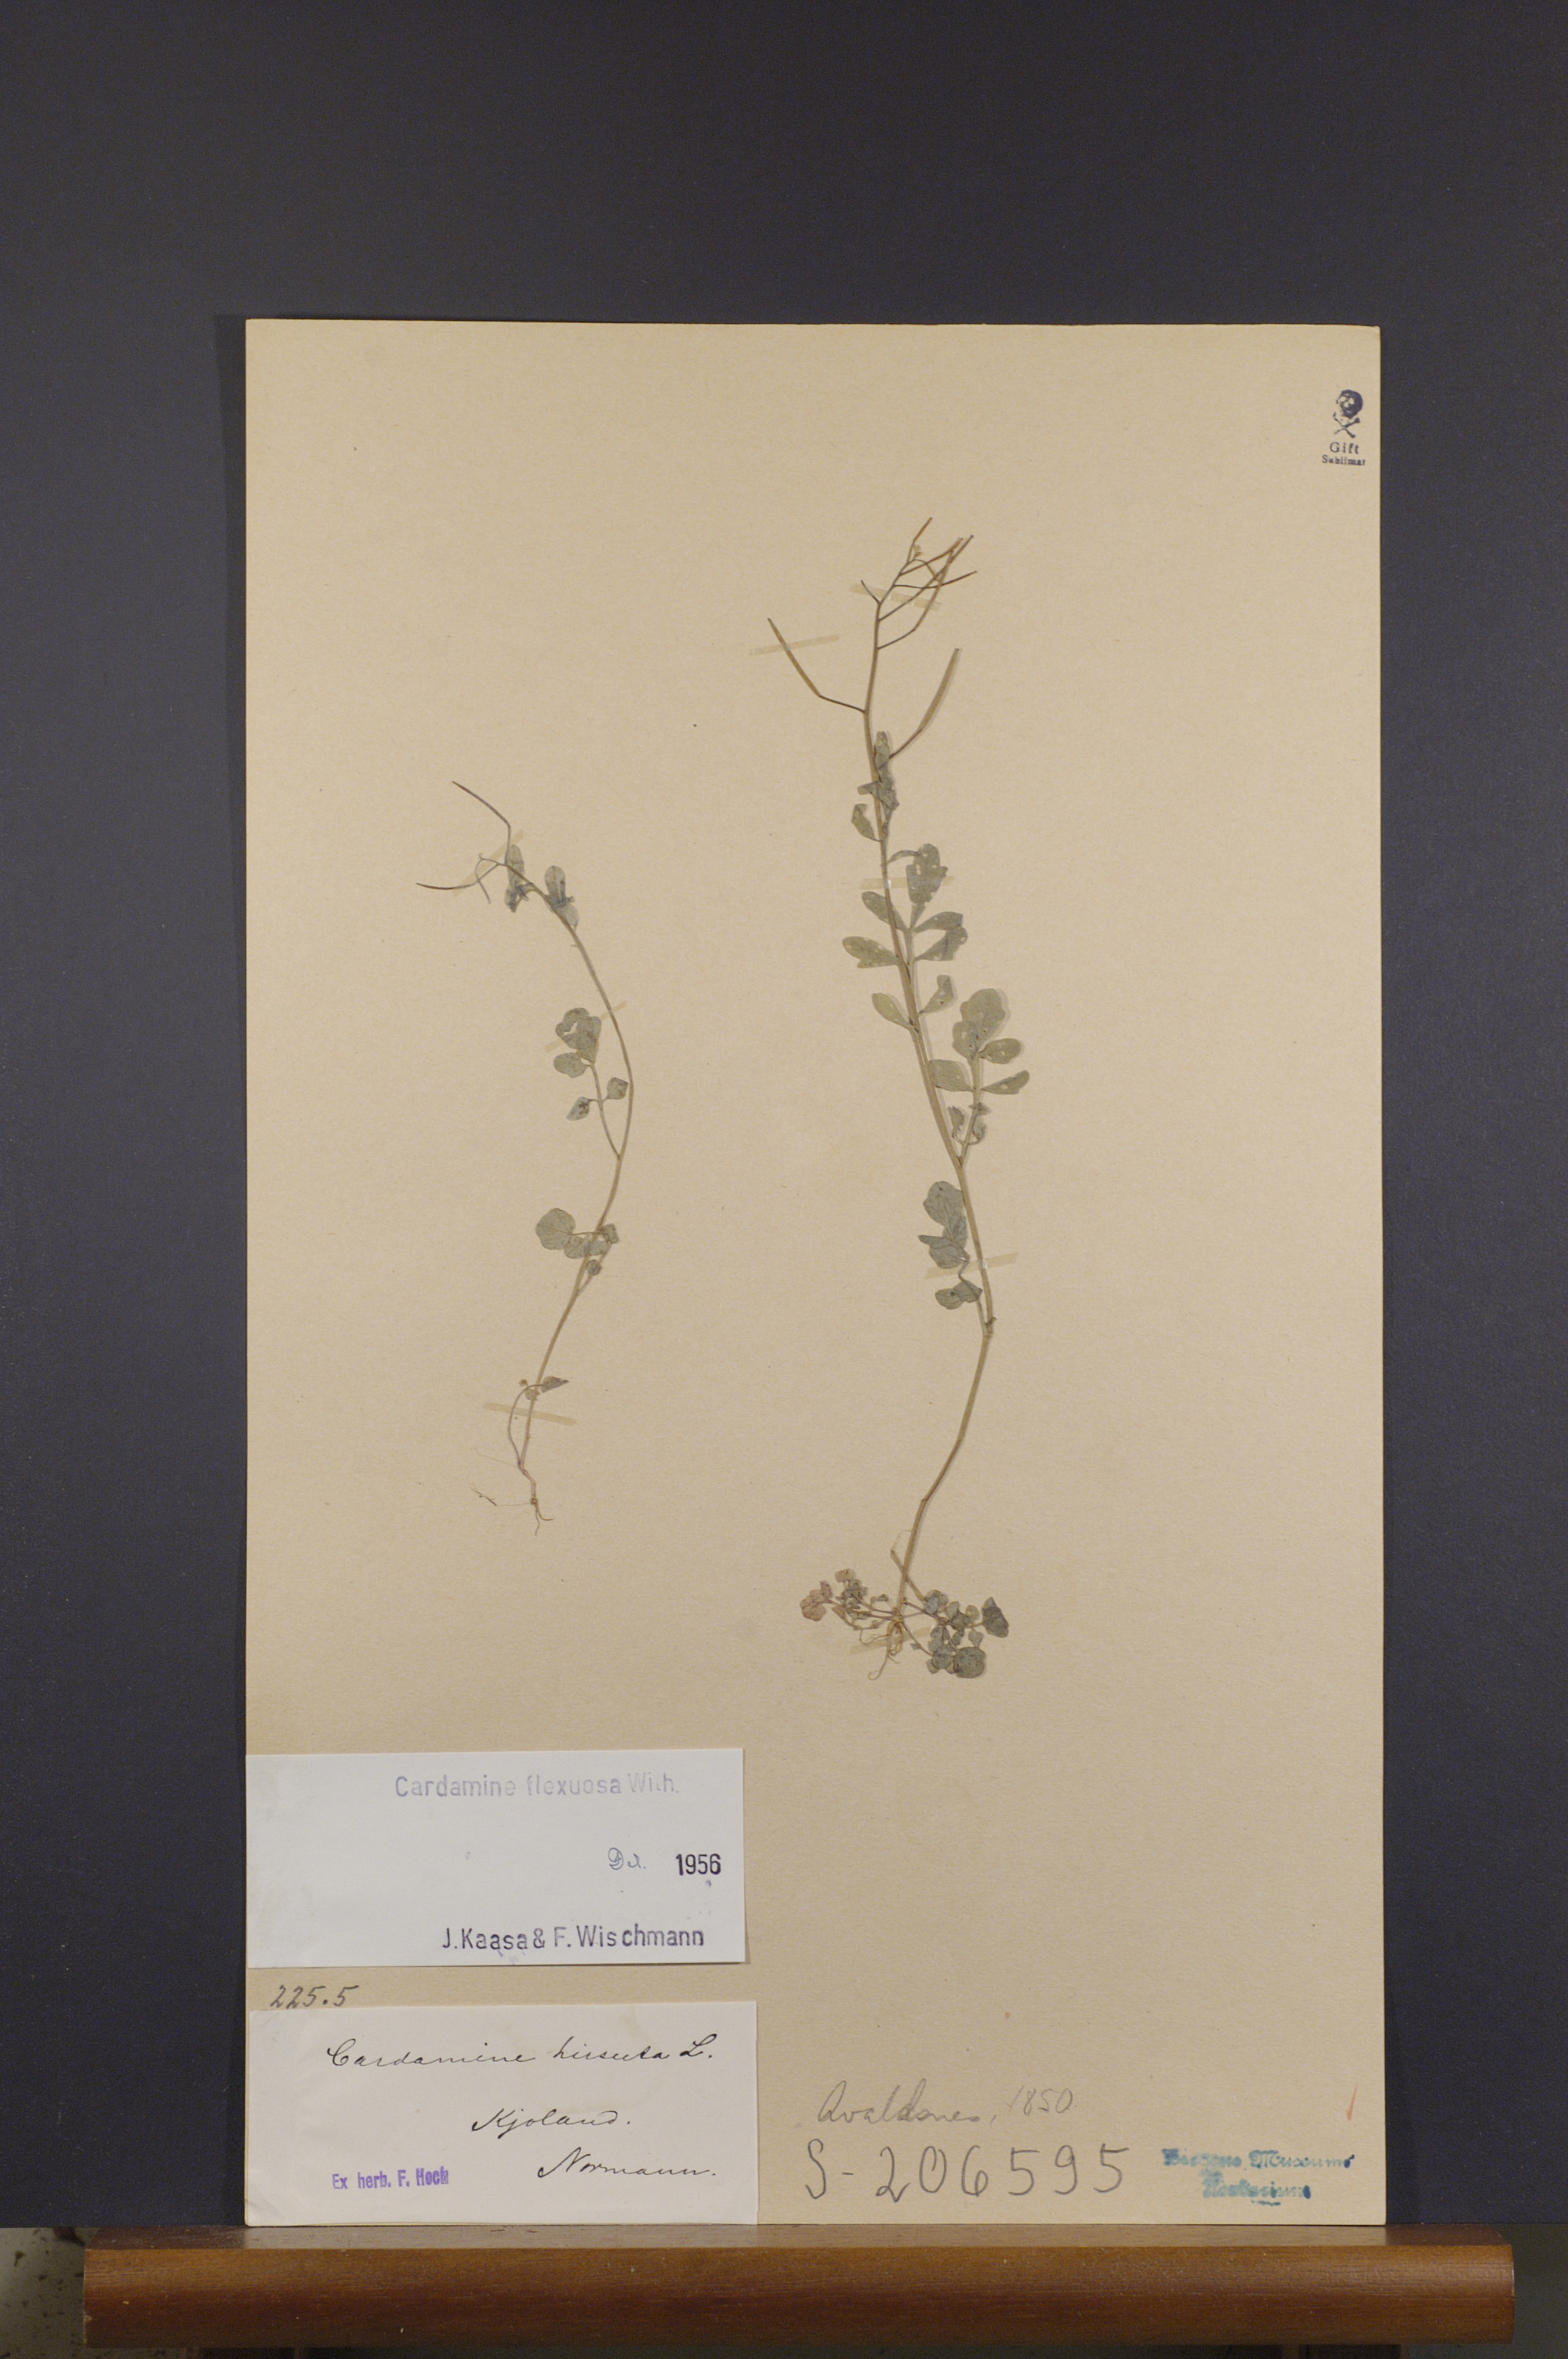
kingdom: Plantae
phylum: Tracheophyta
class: Magnoliopsida
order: Brassicales
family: Brassicaceae
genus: Cardamine
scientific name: Cardamine flexuosa
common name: Woodland bittercress
